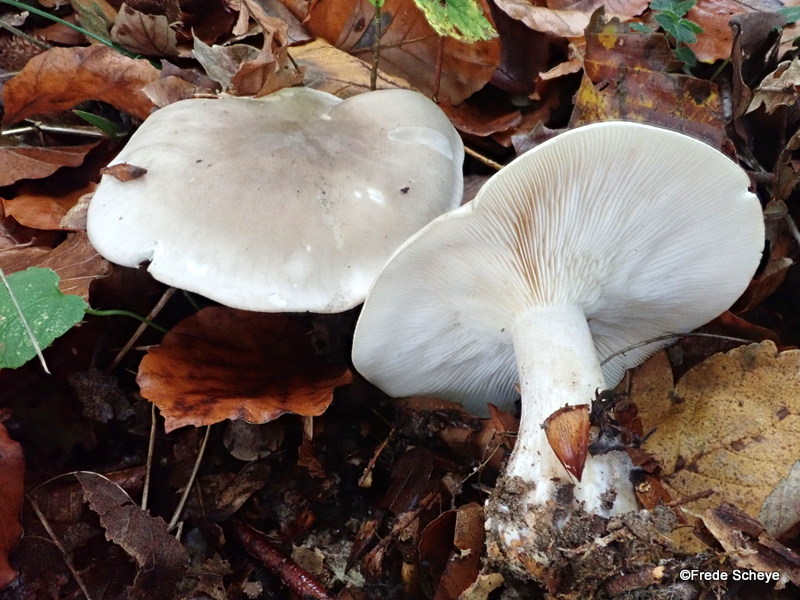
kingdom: Fungi
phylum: Basidiomycota
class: Agaricomycetes
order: Agaricales
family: Tricholomataceae
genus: Clitocybe
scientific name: Clitocybe nebularis
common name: tåge-tragthat
